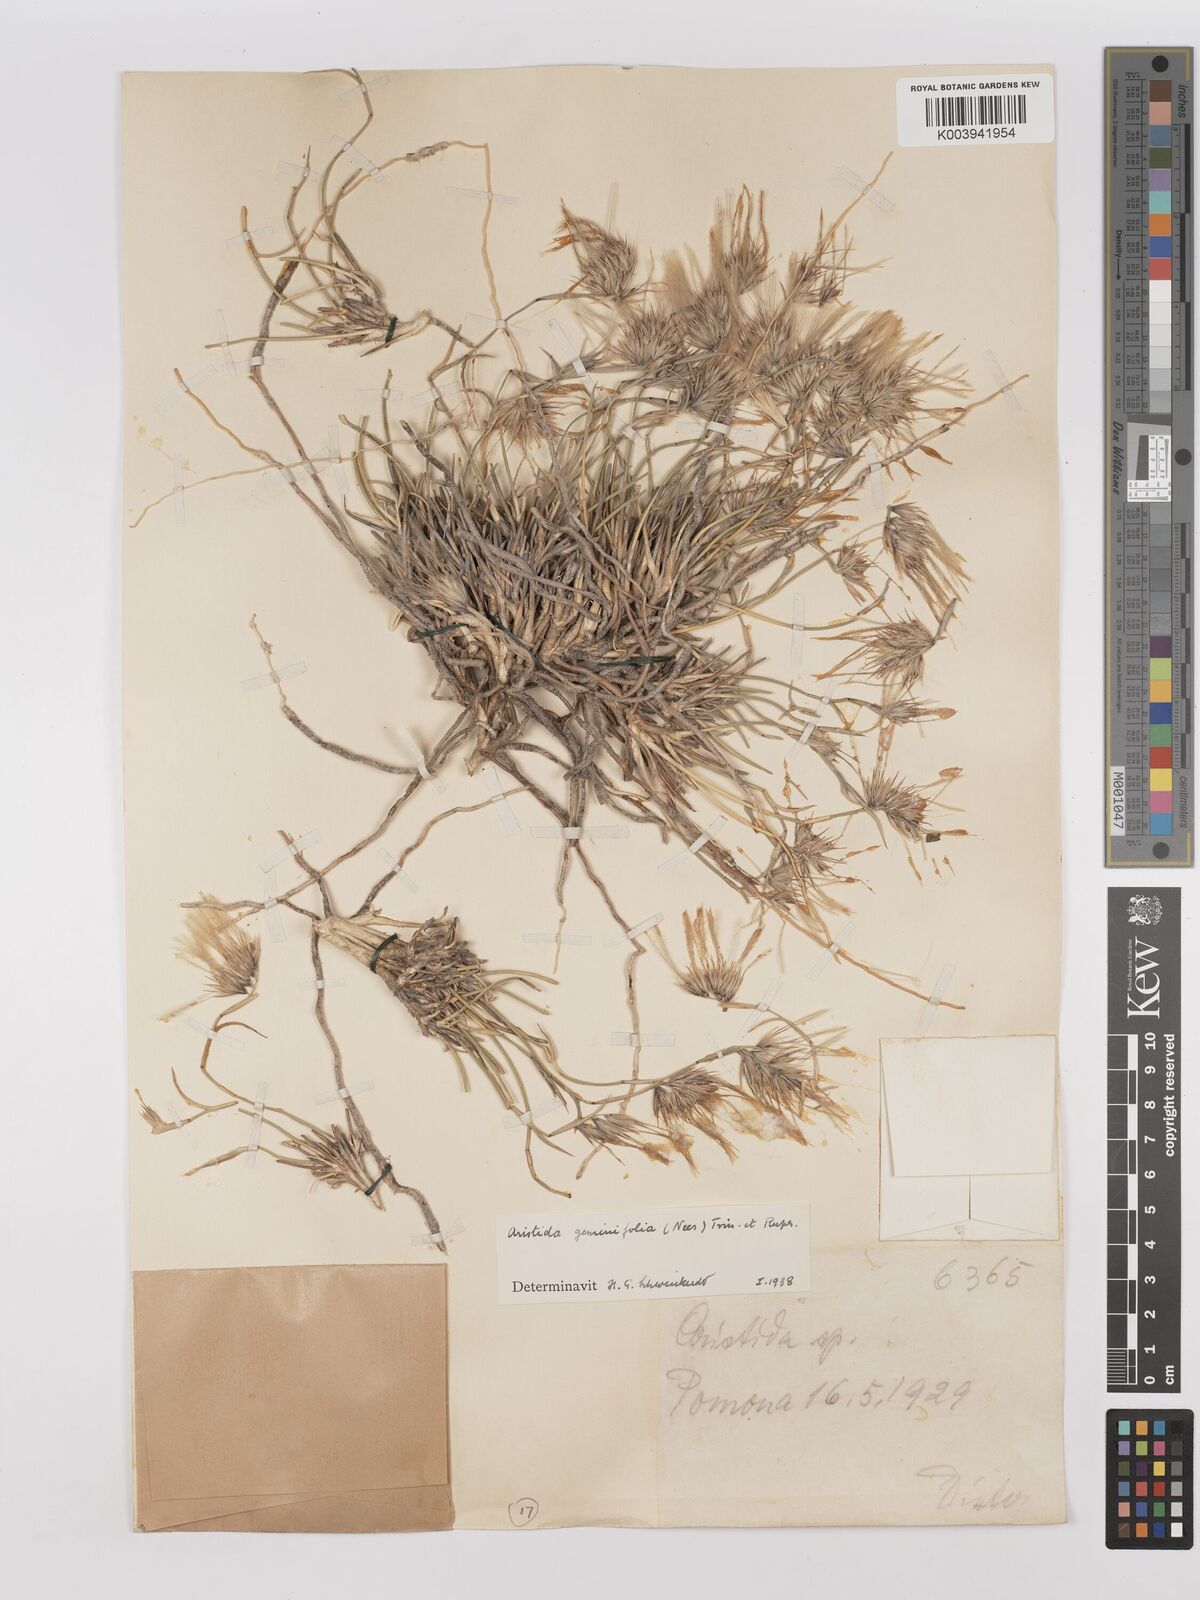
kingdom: Plantae
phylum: Tracheophyta
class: Liliopsida
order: Poales
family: Poaceae
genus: Stipagrostis
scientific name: Stipagrostis geminifolia
